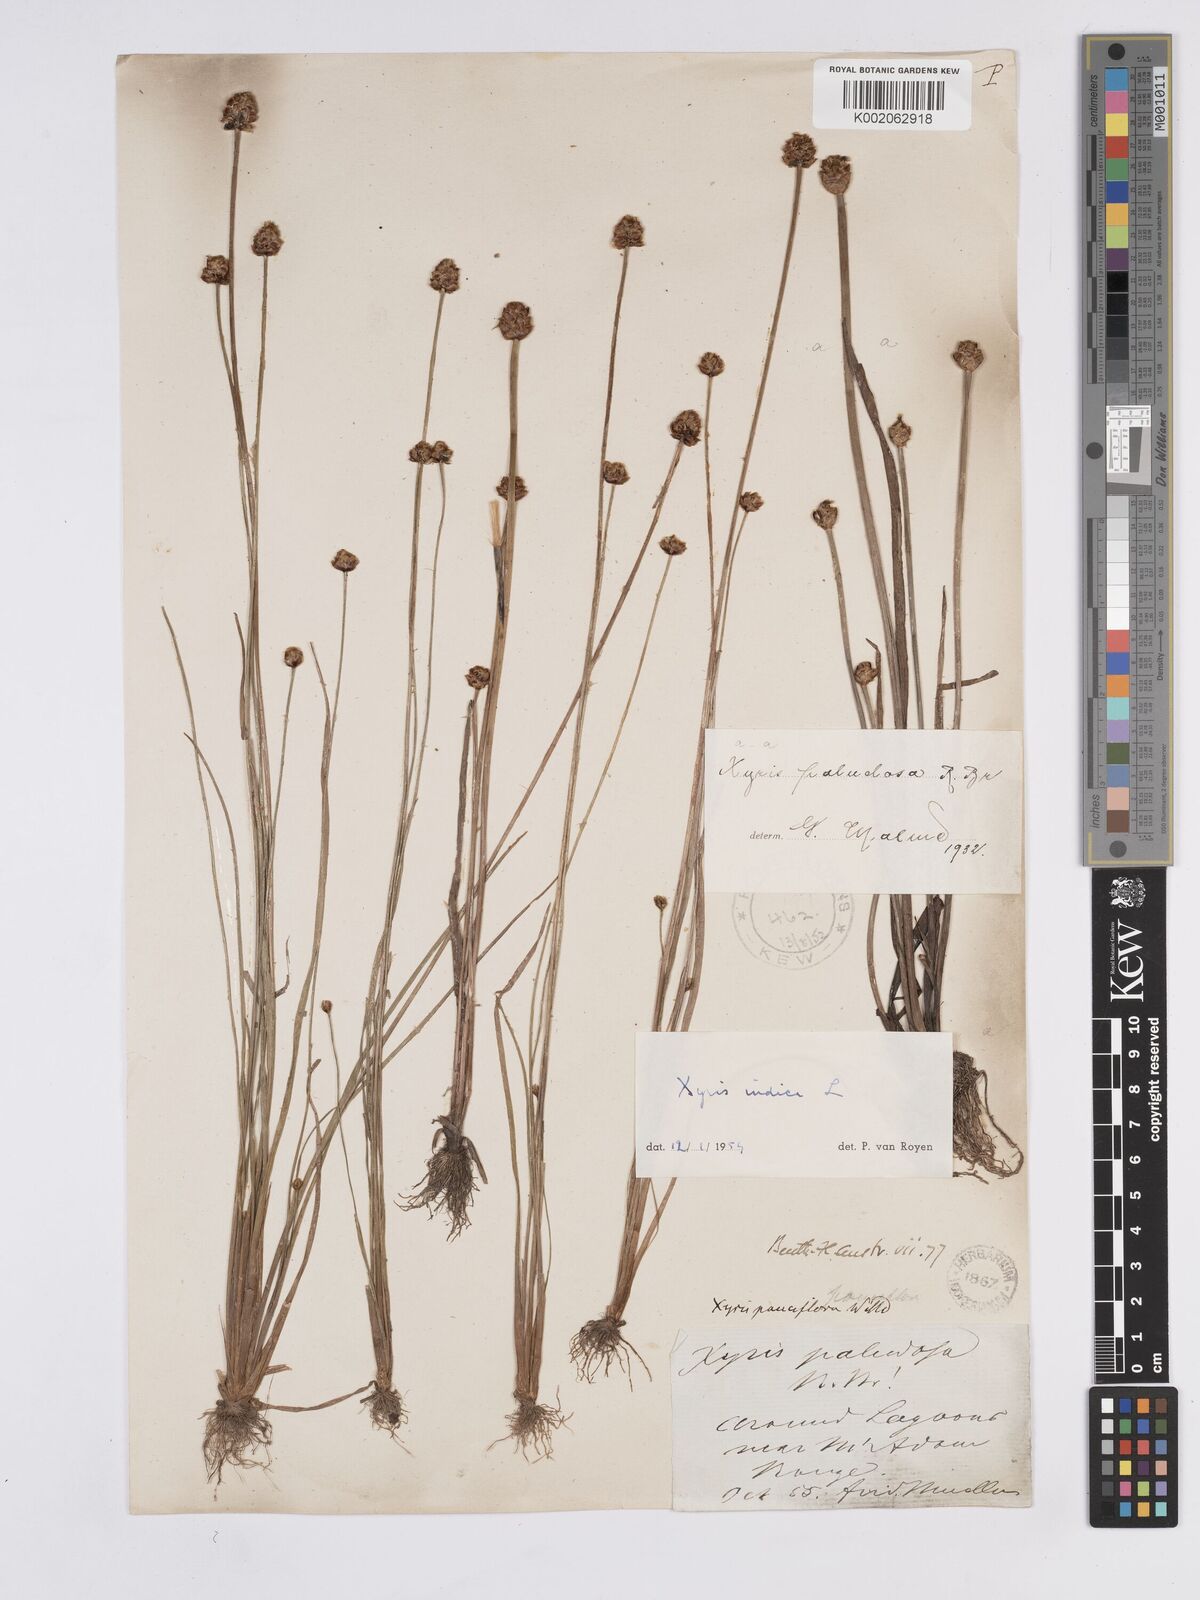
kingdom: Plantae
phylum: Tracheophyta
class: Liliopsida
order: Poales
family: Xyridaceae
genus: Xyris
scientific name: Xyris indica
